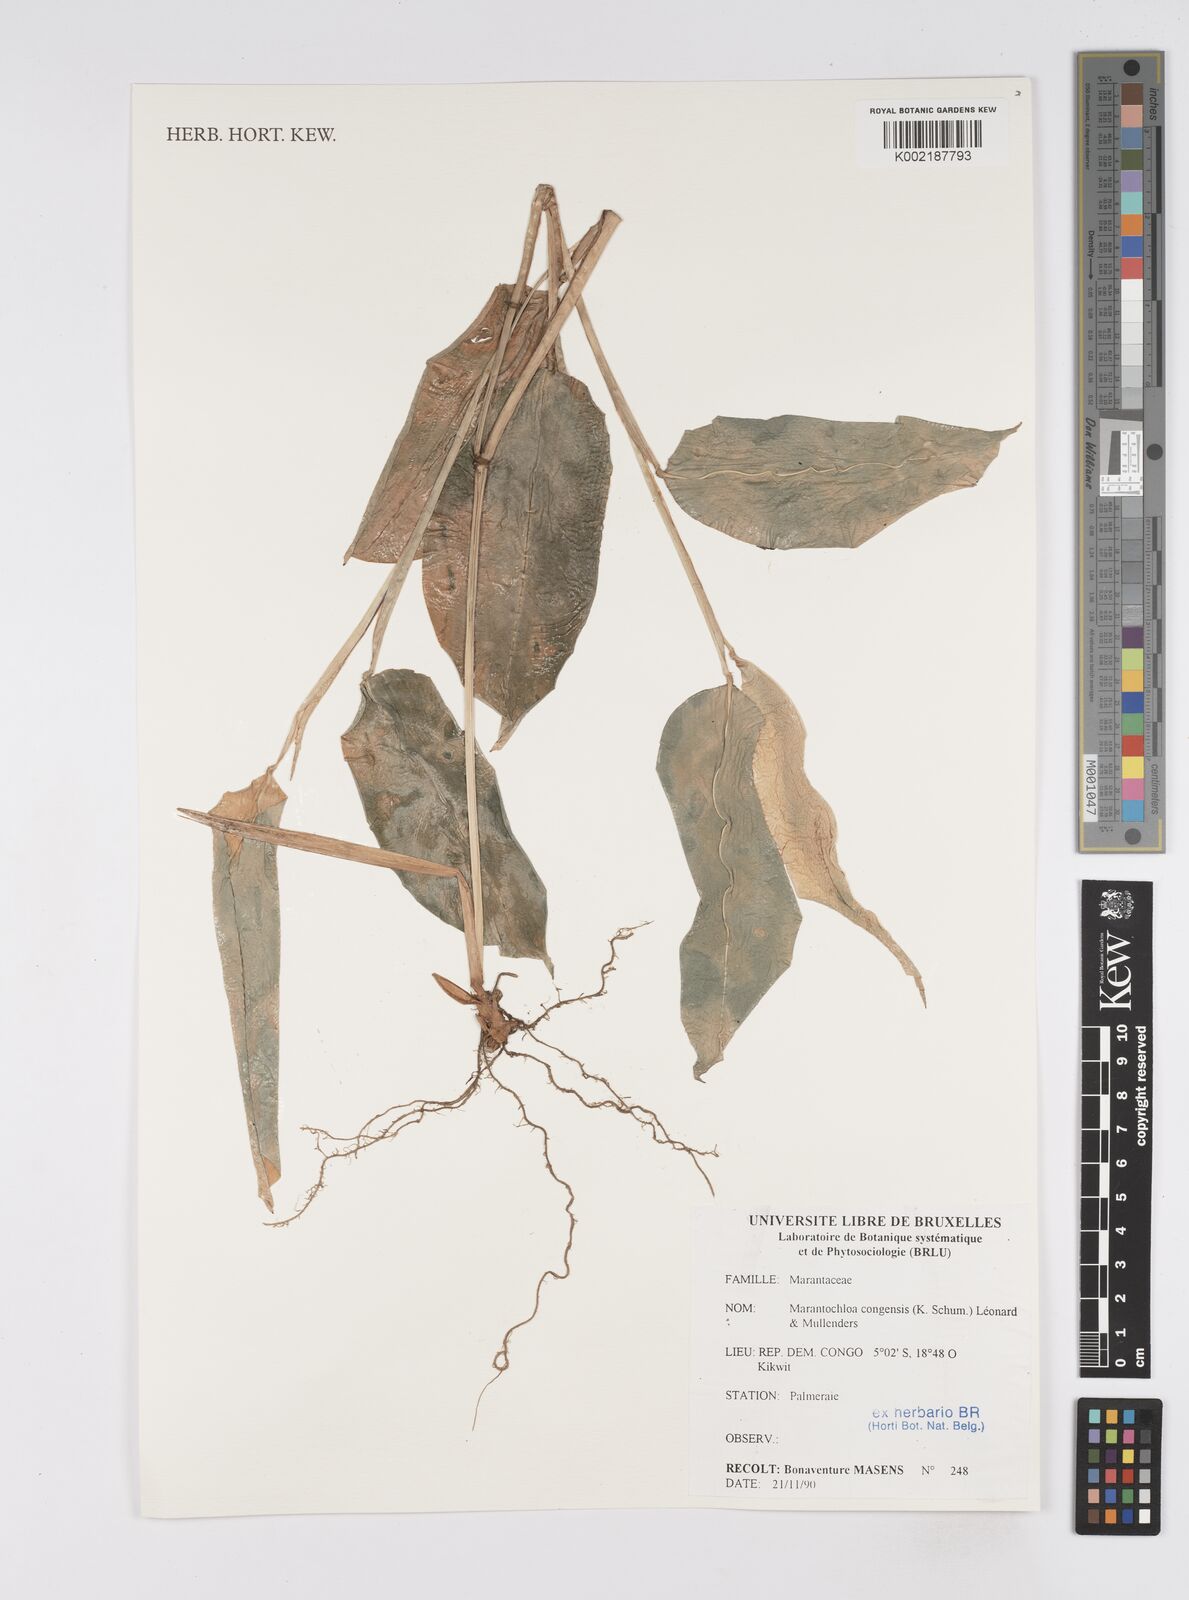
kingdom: Plantae
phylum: Tracheophyta
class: Liliopsida
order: Zingiberales
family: Marantaceae
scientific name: Marantaceae
